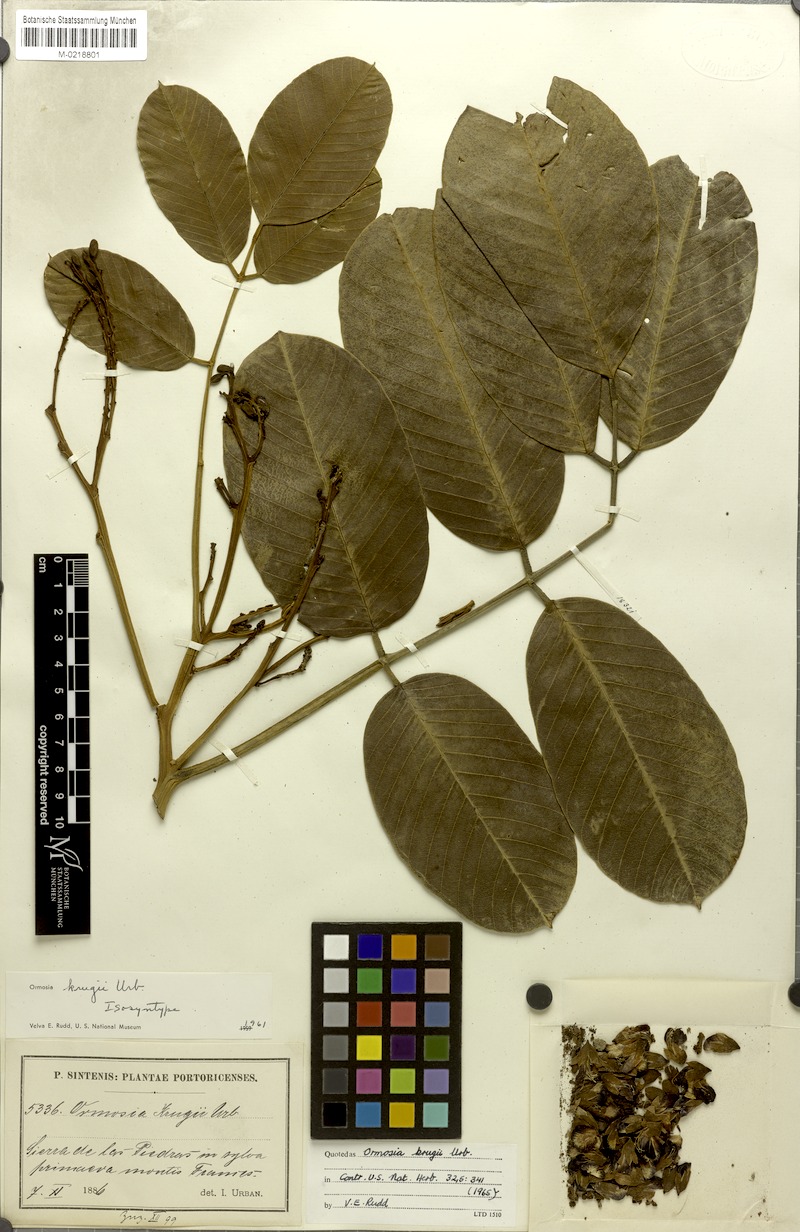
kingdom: Plantae
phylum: Tracheophyta
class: Magnoliopsida
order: Fabales
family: Fabaceae
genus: Ormosia
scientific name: Ormosia krugii
